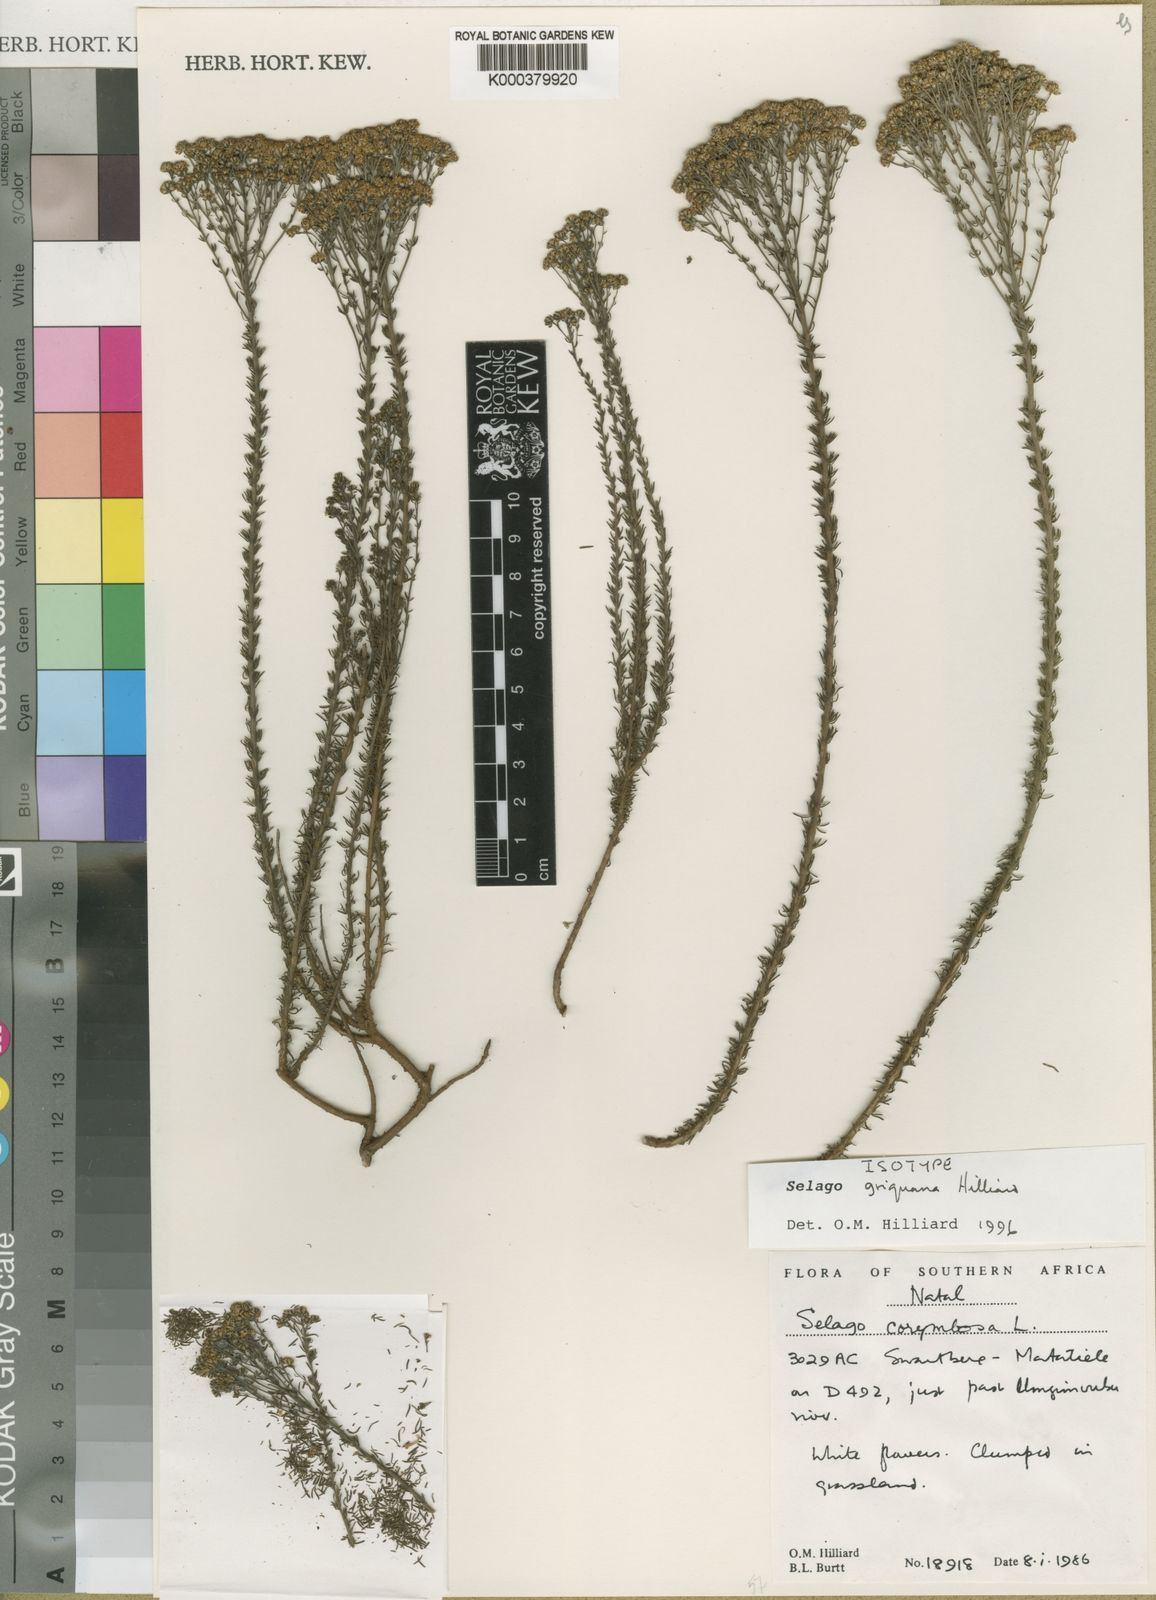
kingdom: Plantae
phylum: Tracheophyta
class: Magnoliopsida
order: Lamiales
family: Scrophulariaceae
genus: Selago
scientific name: Selago griquana
